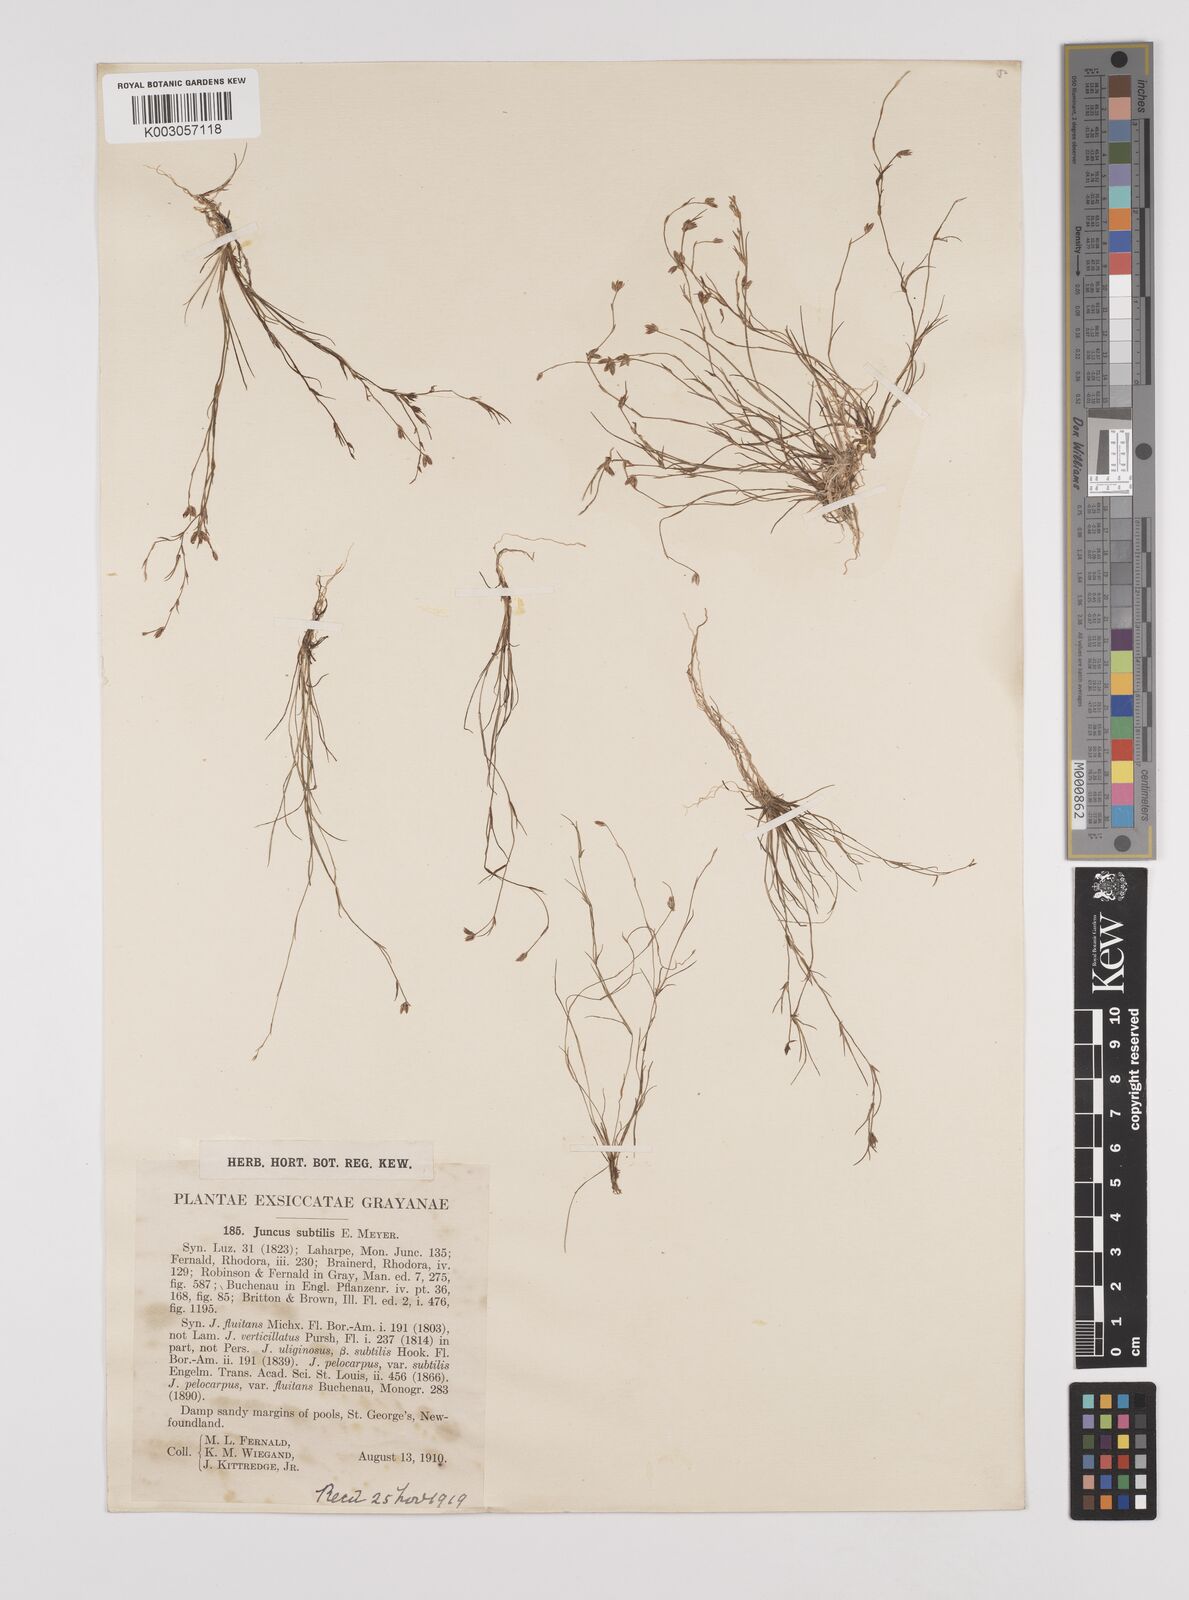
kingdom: Plantae
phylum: Tracheophyta
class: Liliopsida
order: Poales
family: Juncaceae
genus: Juncus
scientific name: Juncus subtilis
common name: Creeping rush
